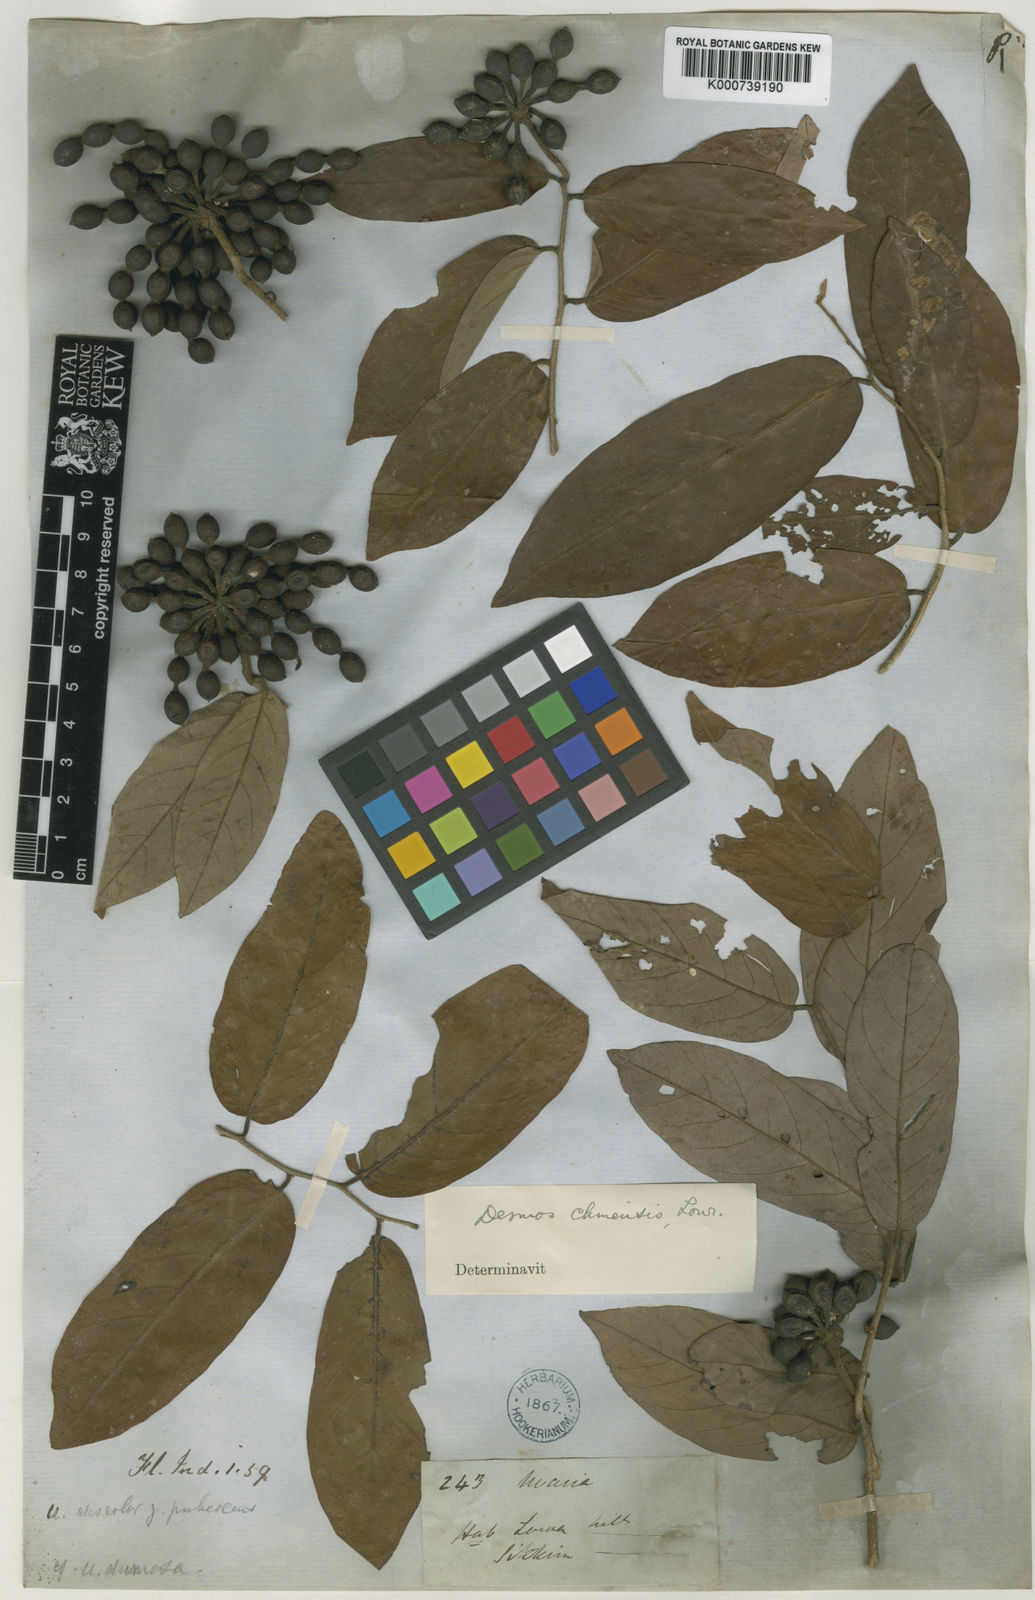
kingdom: Plantae
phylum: Tracheophyta
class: Magnoliopsida
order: Magnoliales
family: Annonaceae
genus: Desmos
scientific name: Desmos chinensis
